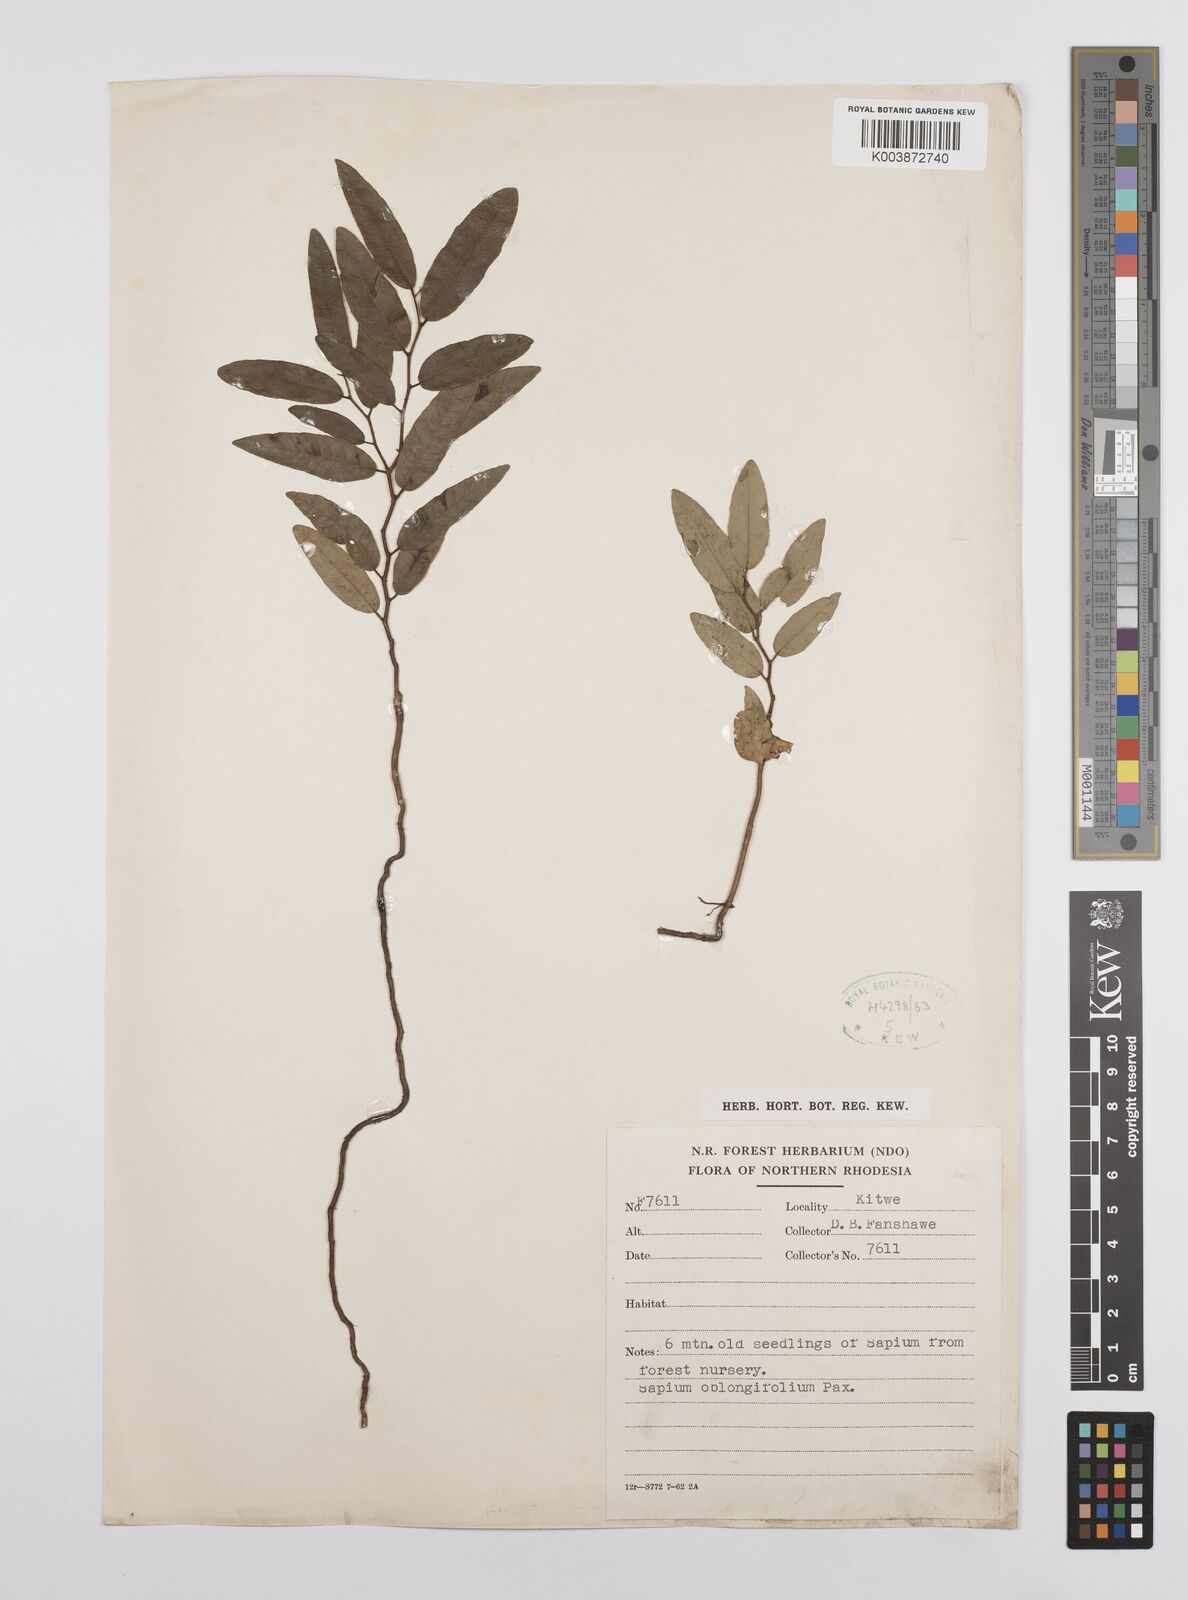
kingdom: Plantae
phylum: Tracheophyta
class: Magnoliopsida
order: Malpighiales
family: Euphorbiaceae
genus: Sclerocroton
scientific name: Sclerocroton oblongifolius
